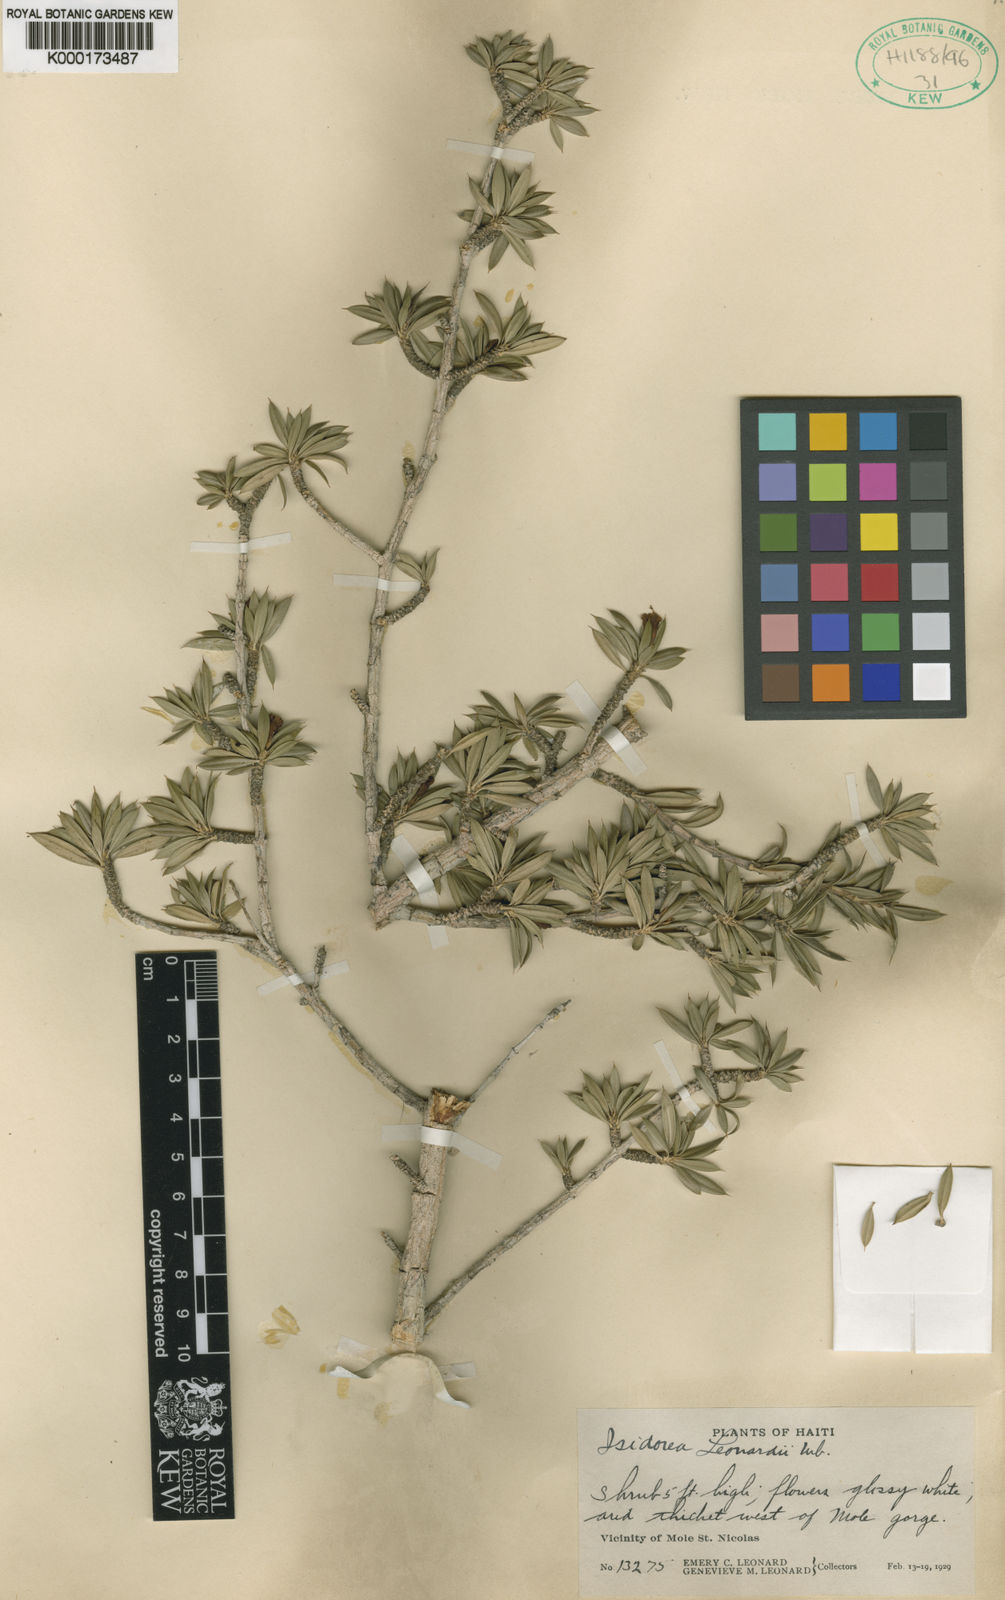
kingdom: Plantae
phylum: Tracheophyta
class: Magnoliopsida
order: Gentianales
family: Rubiaceae
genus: Isidorea
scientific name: Isidorea leonardii
